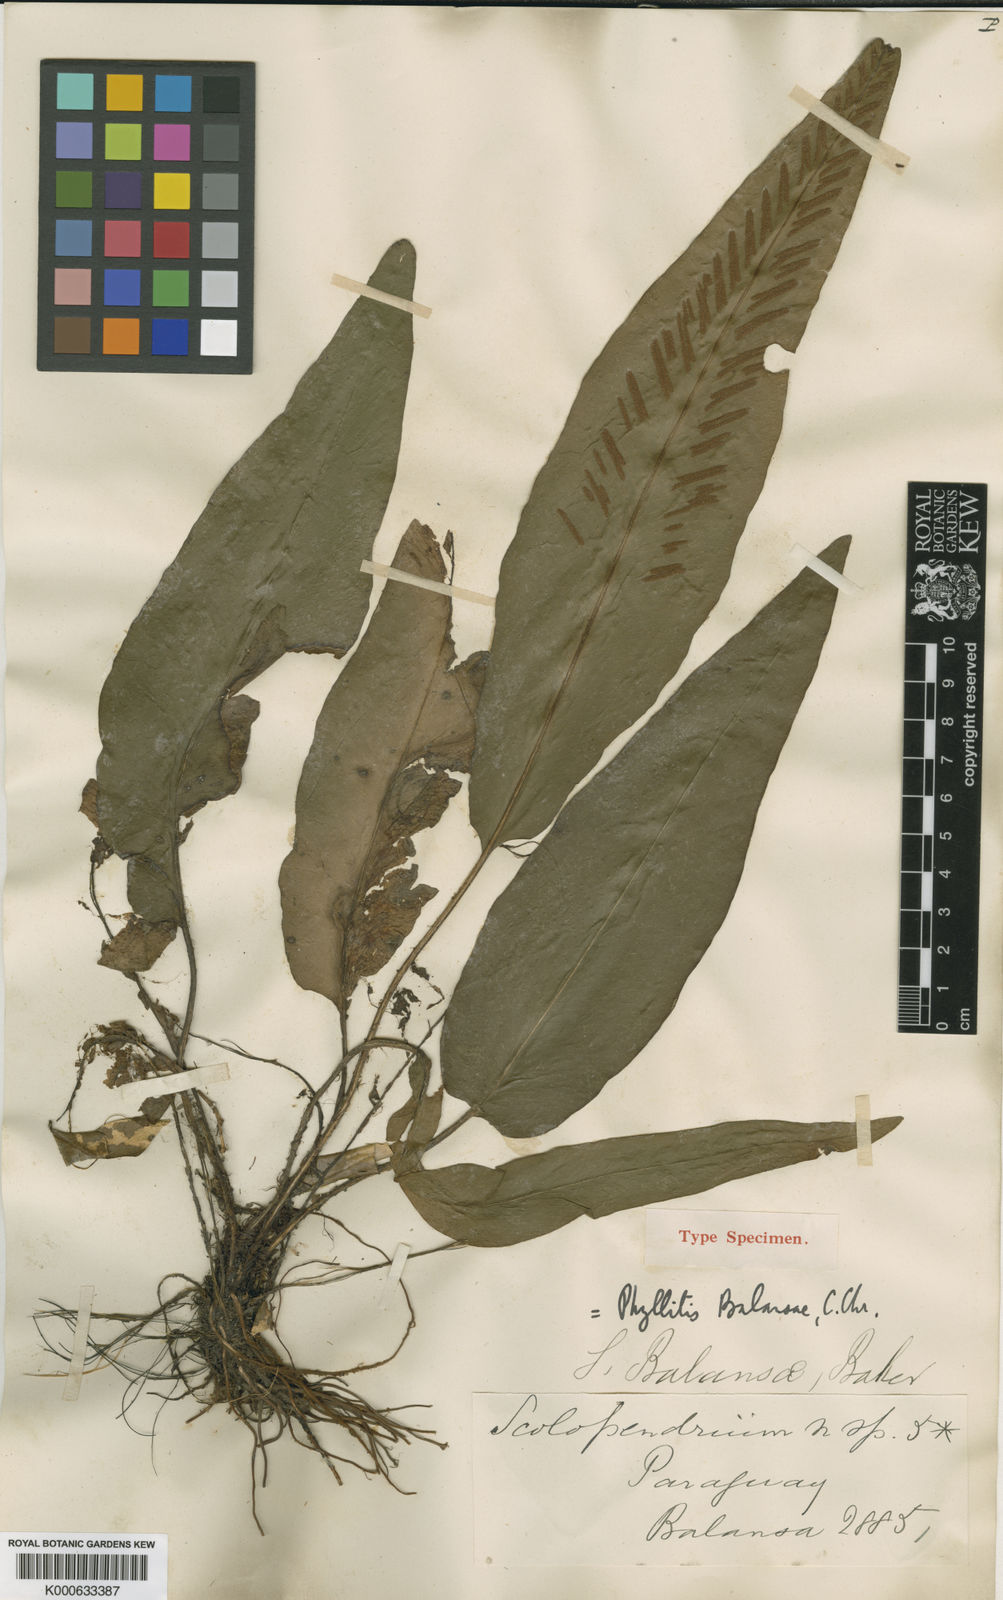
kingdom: Plantae
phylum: Tracheophyta
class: Polypodiopsida
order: Polypodiales
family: Aspleniaceae
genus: Asplenium
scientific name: Asplenium balansae
